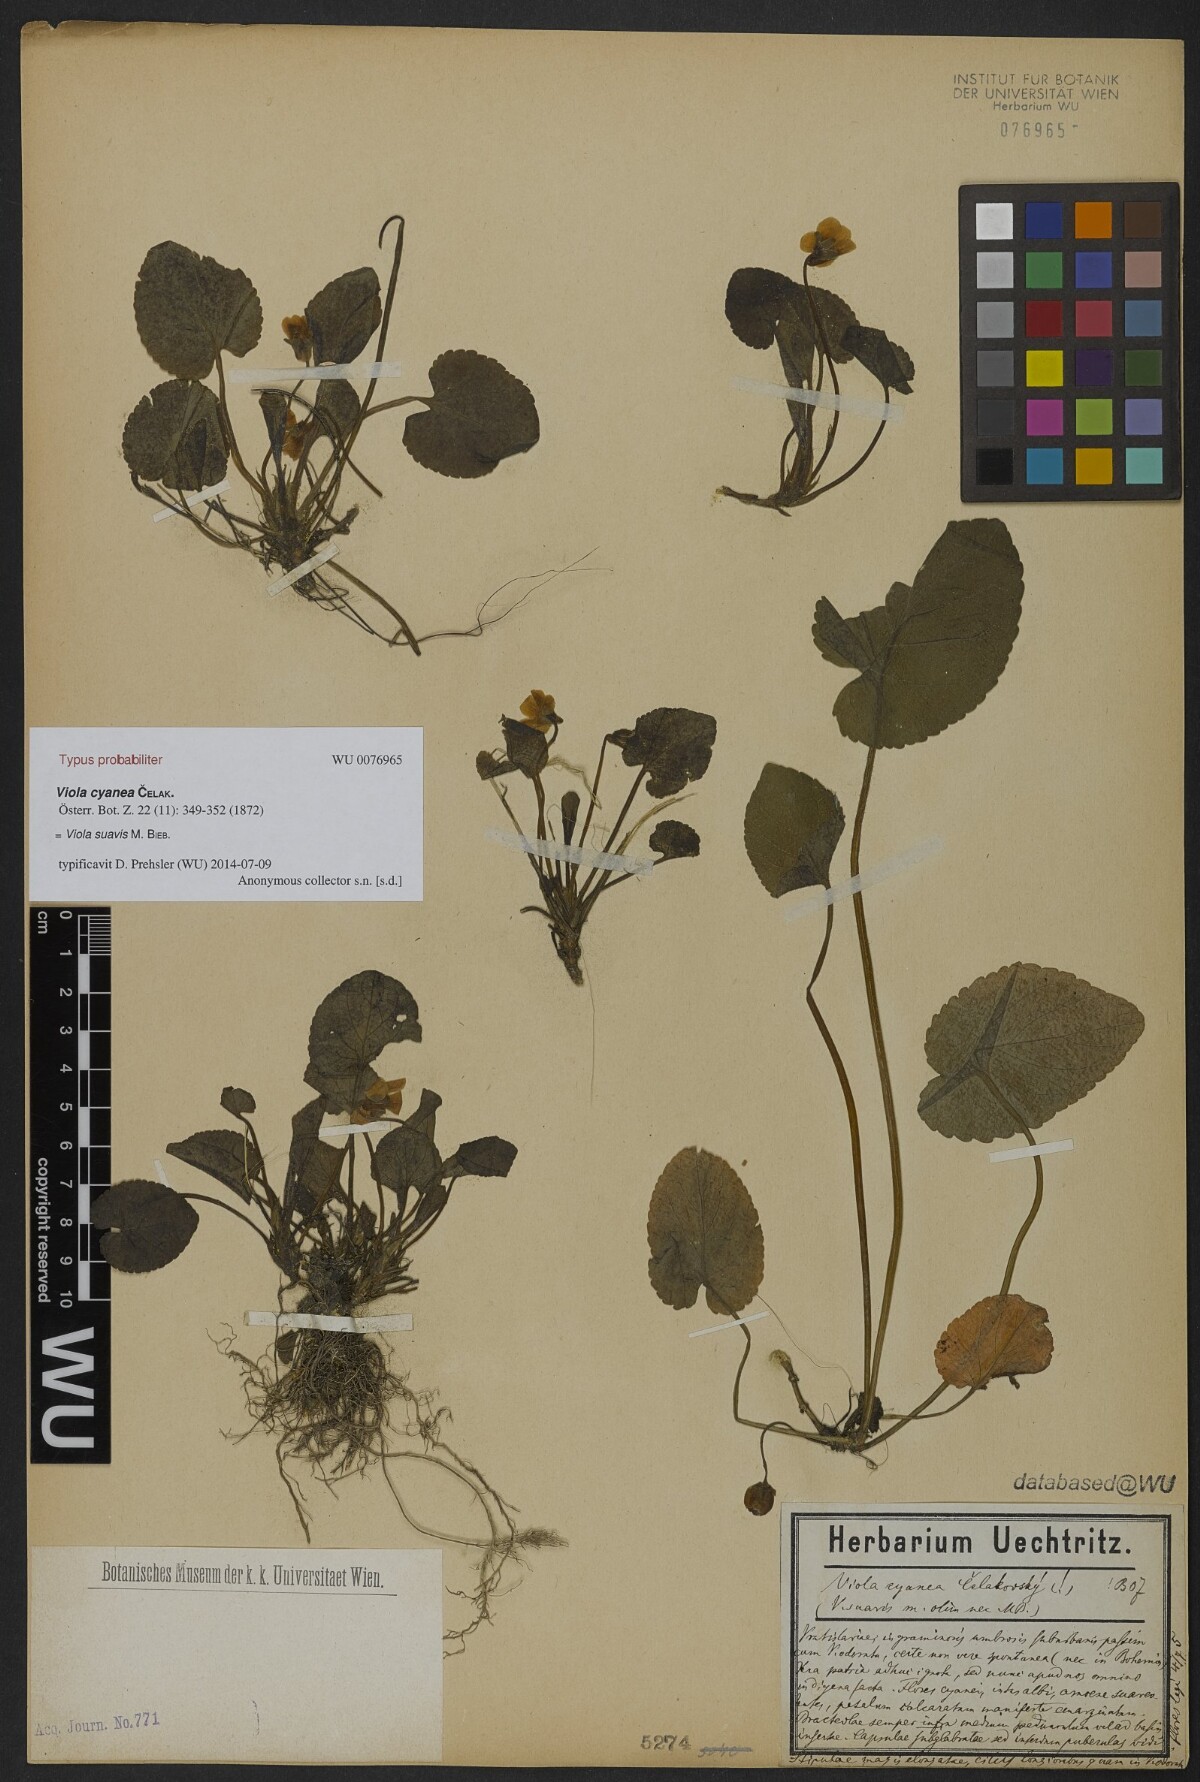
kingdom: Plantae
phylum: Tracheophyta
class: Magnoliopsida
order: Malpighiales
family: Violaceae
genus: Viola
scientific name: Viola suavis
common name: Russian violet
